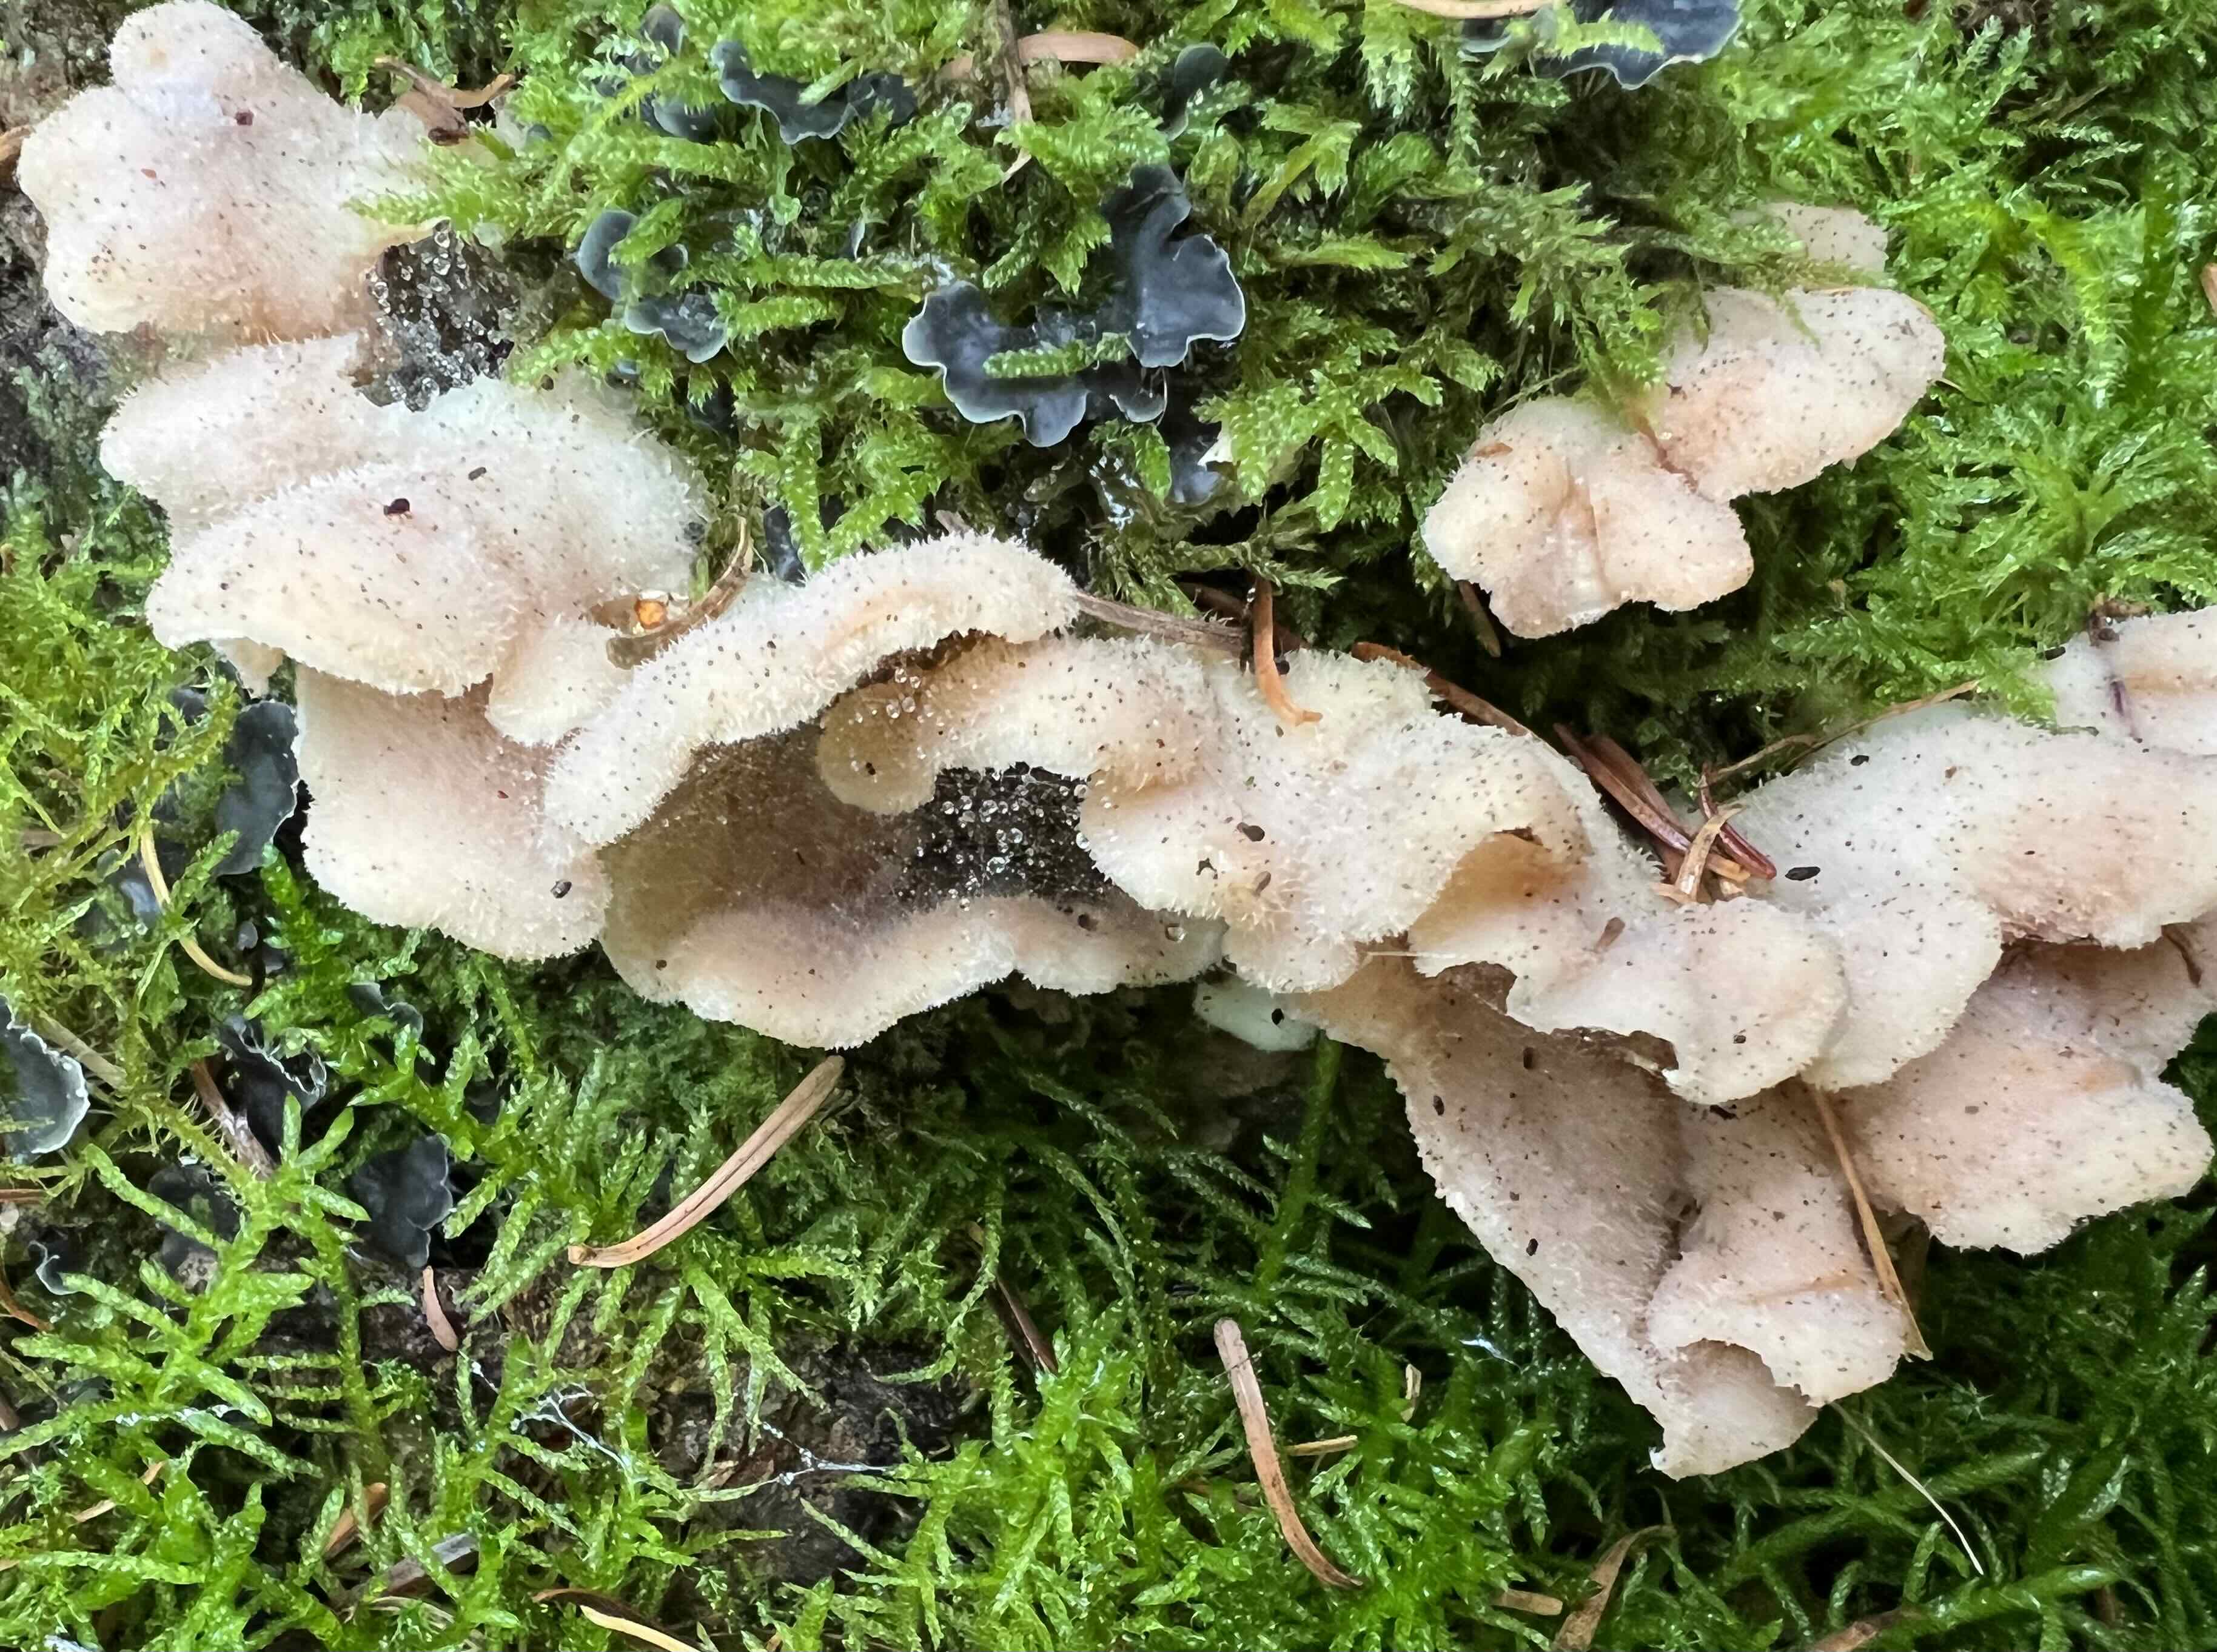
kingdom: Fungi
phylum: Basidiomycota
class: Agaricomycetes
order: Polyporales
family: Meruliaceae
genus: Phlebia
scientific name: Phlebia tremellosa
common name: bævrende åresvamp
